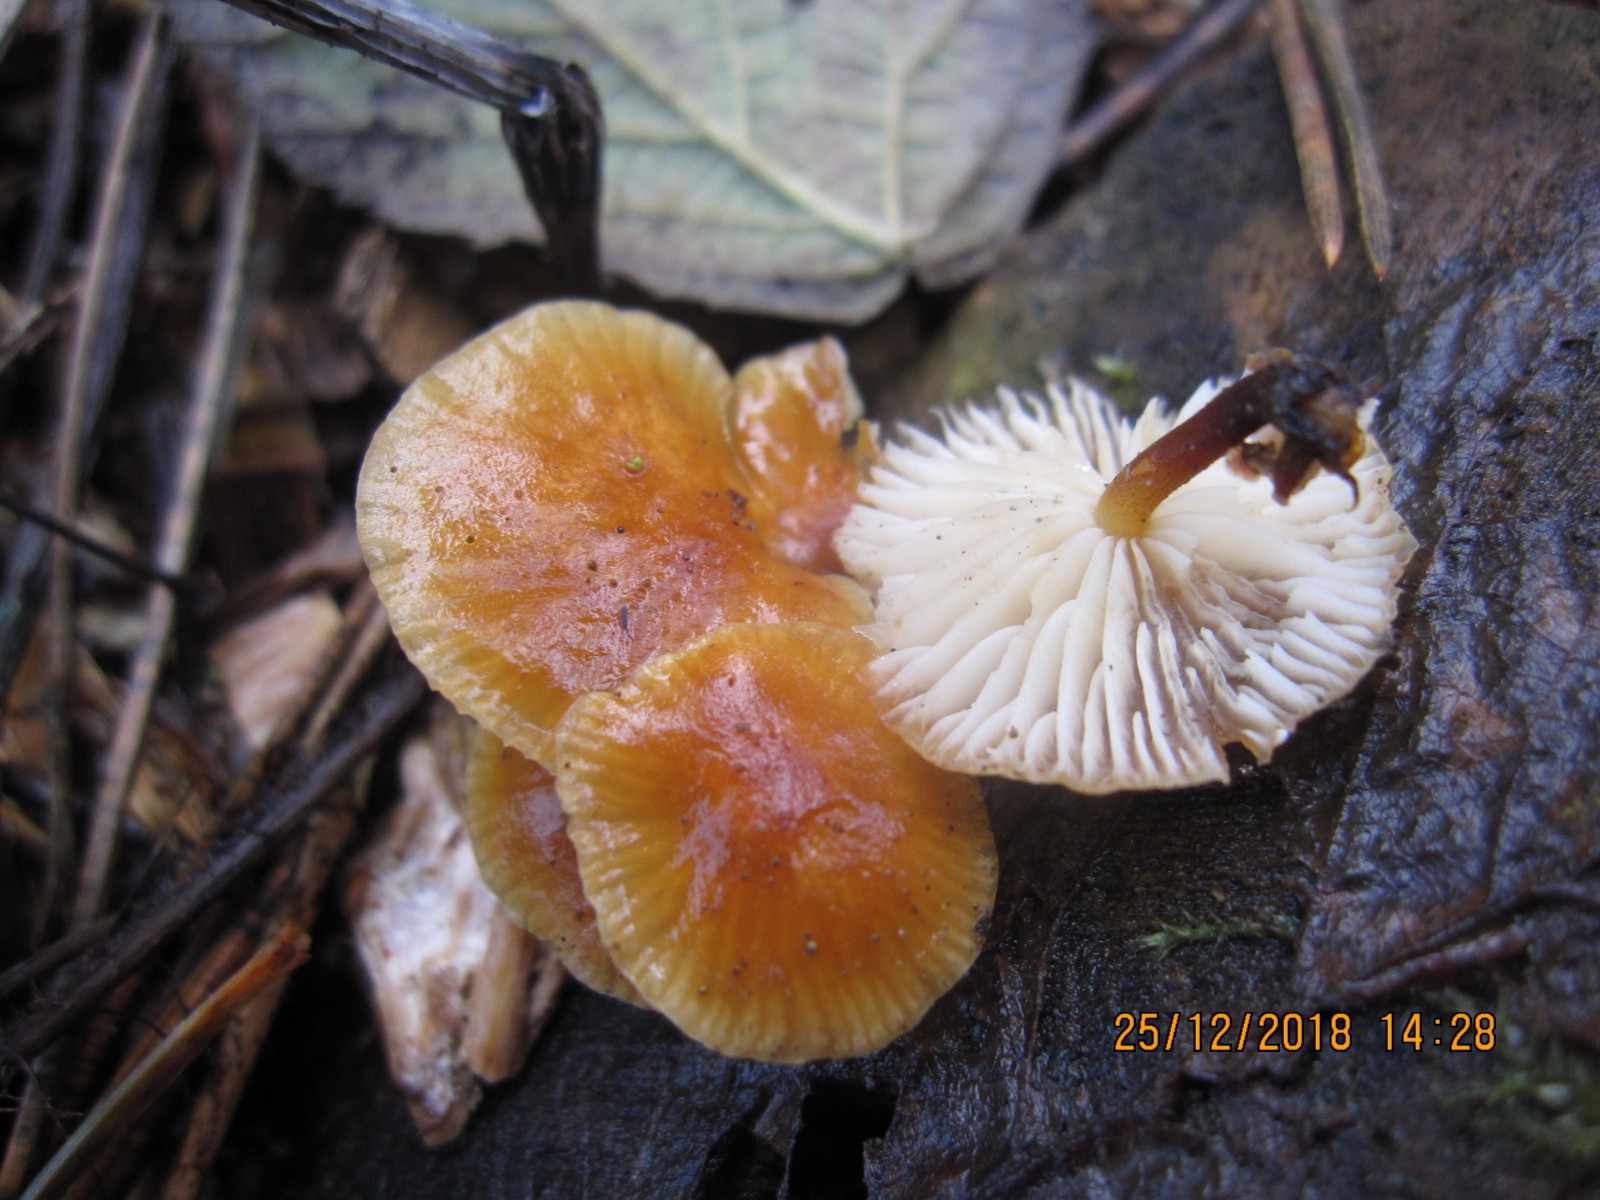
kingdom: Fungi
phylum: Basidiomycota
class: Agaricomycetes
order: Agaricales
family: Physalacriaceae
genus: Flammulina
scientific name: Flammulina velutipes
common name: gul fløjlsfod
